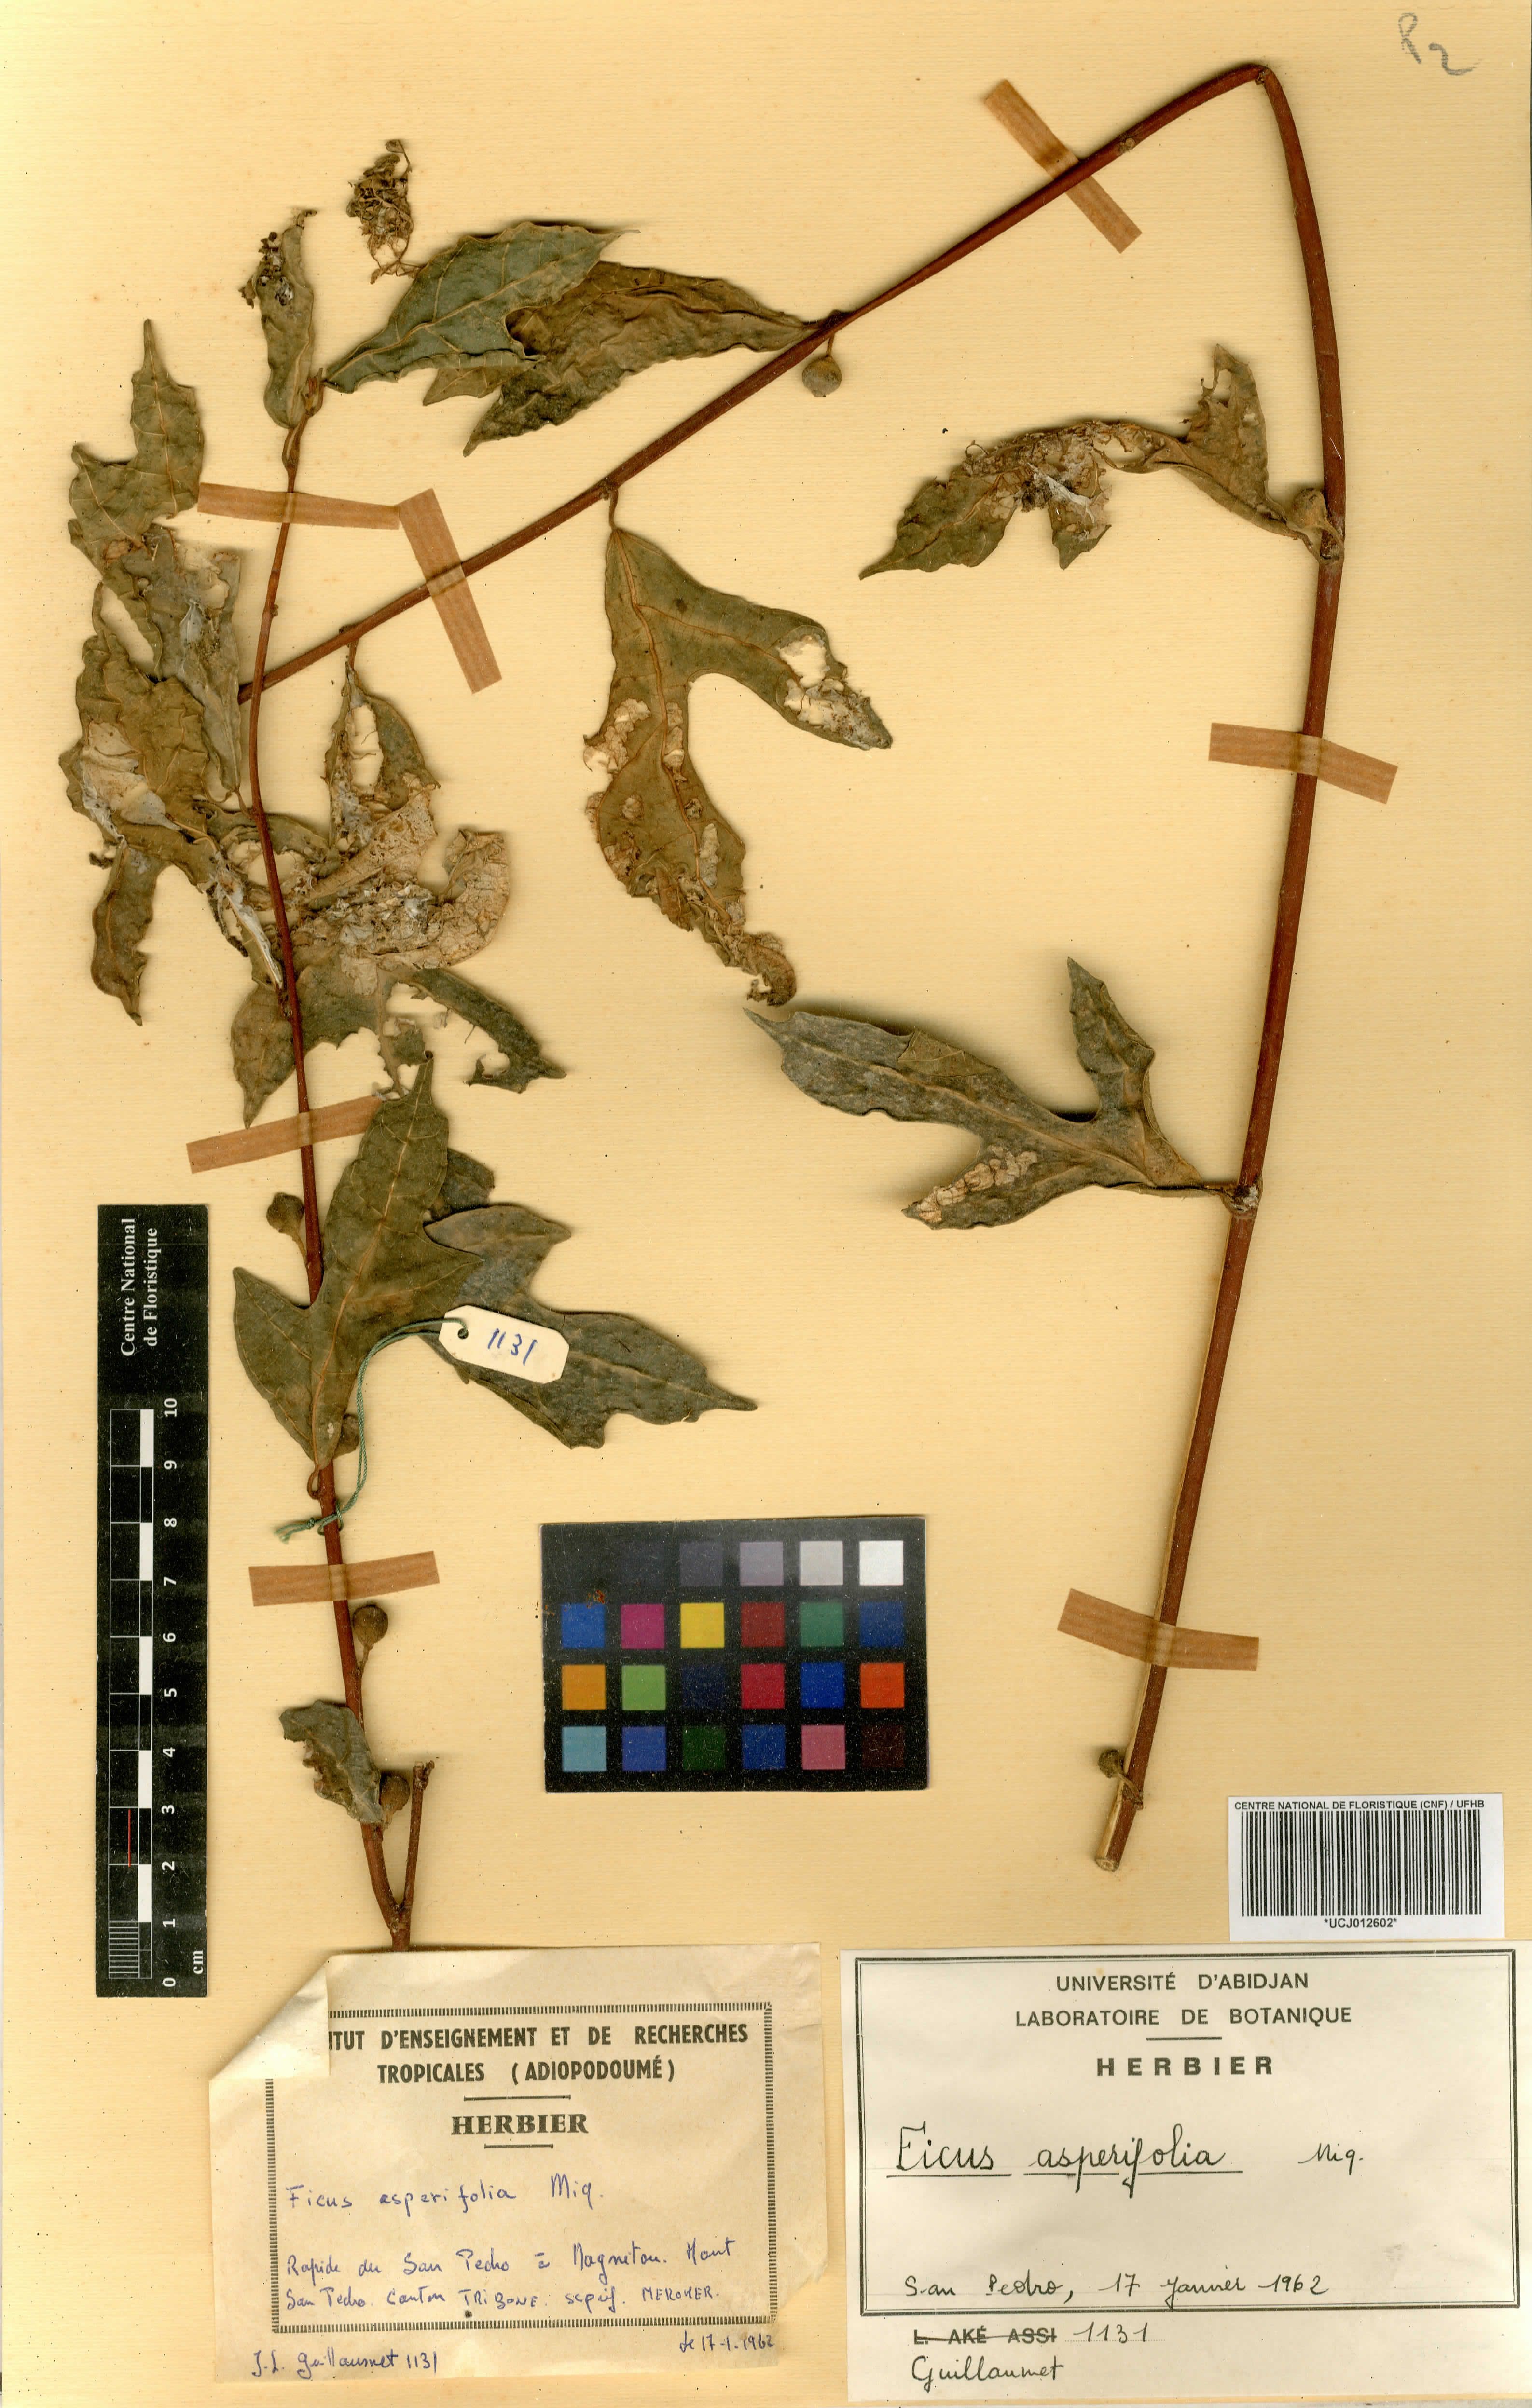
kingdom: Plantae
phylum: Tracheophyta
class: Magnoliopsida
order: Rosales
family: Moraceae
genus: Ficus
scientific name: Ficus asperifolia
